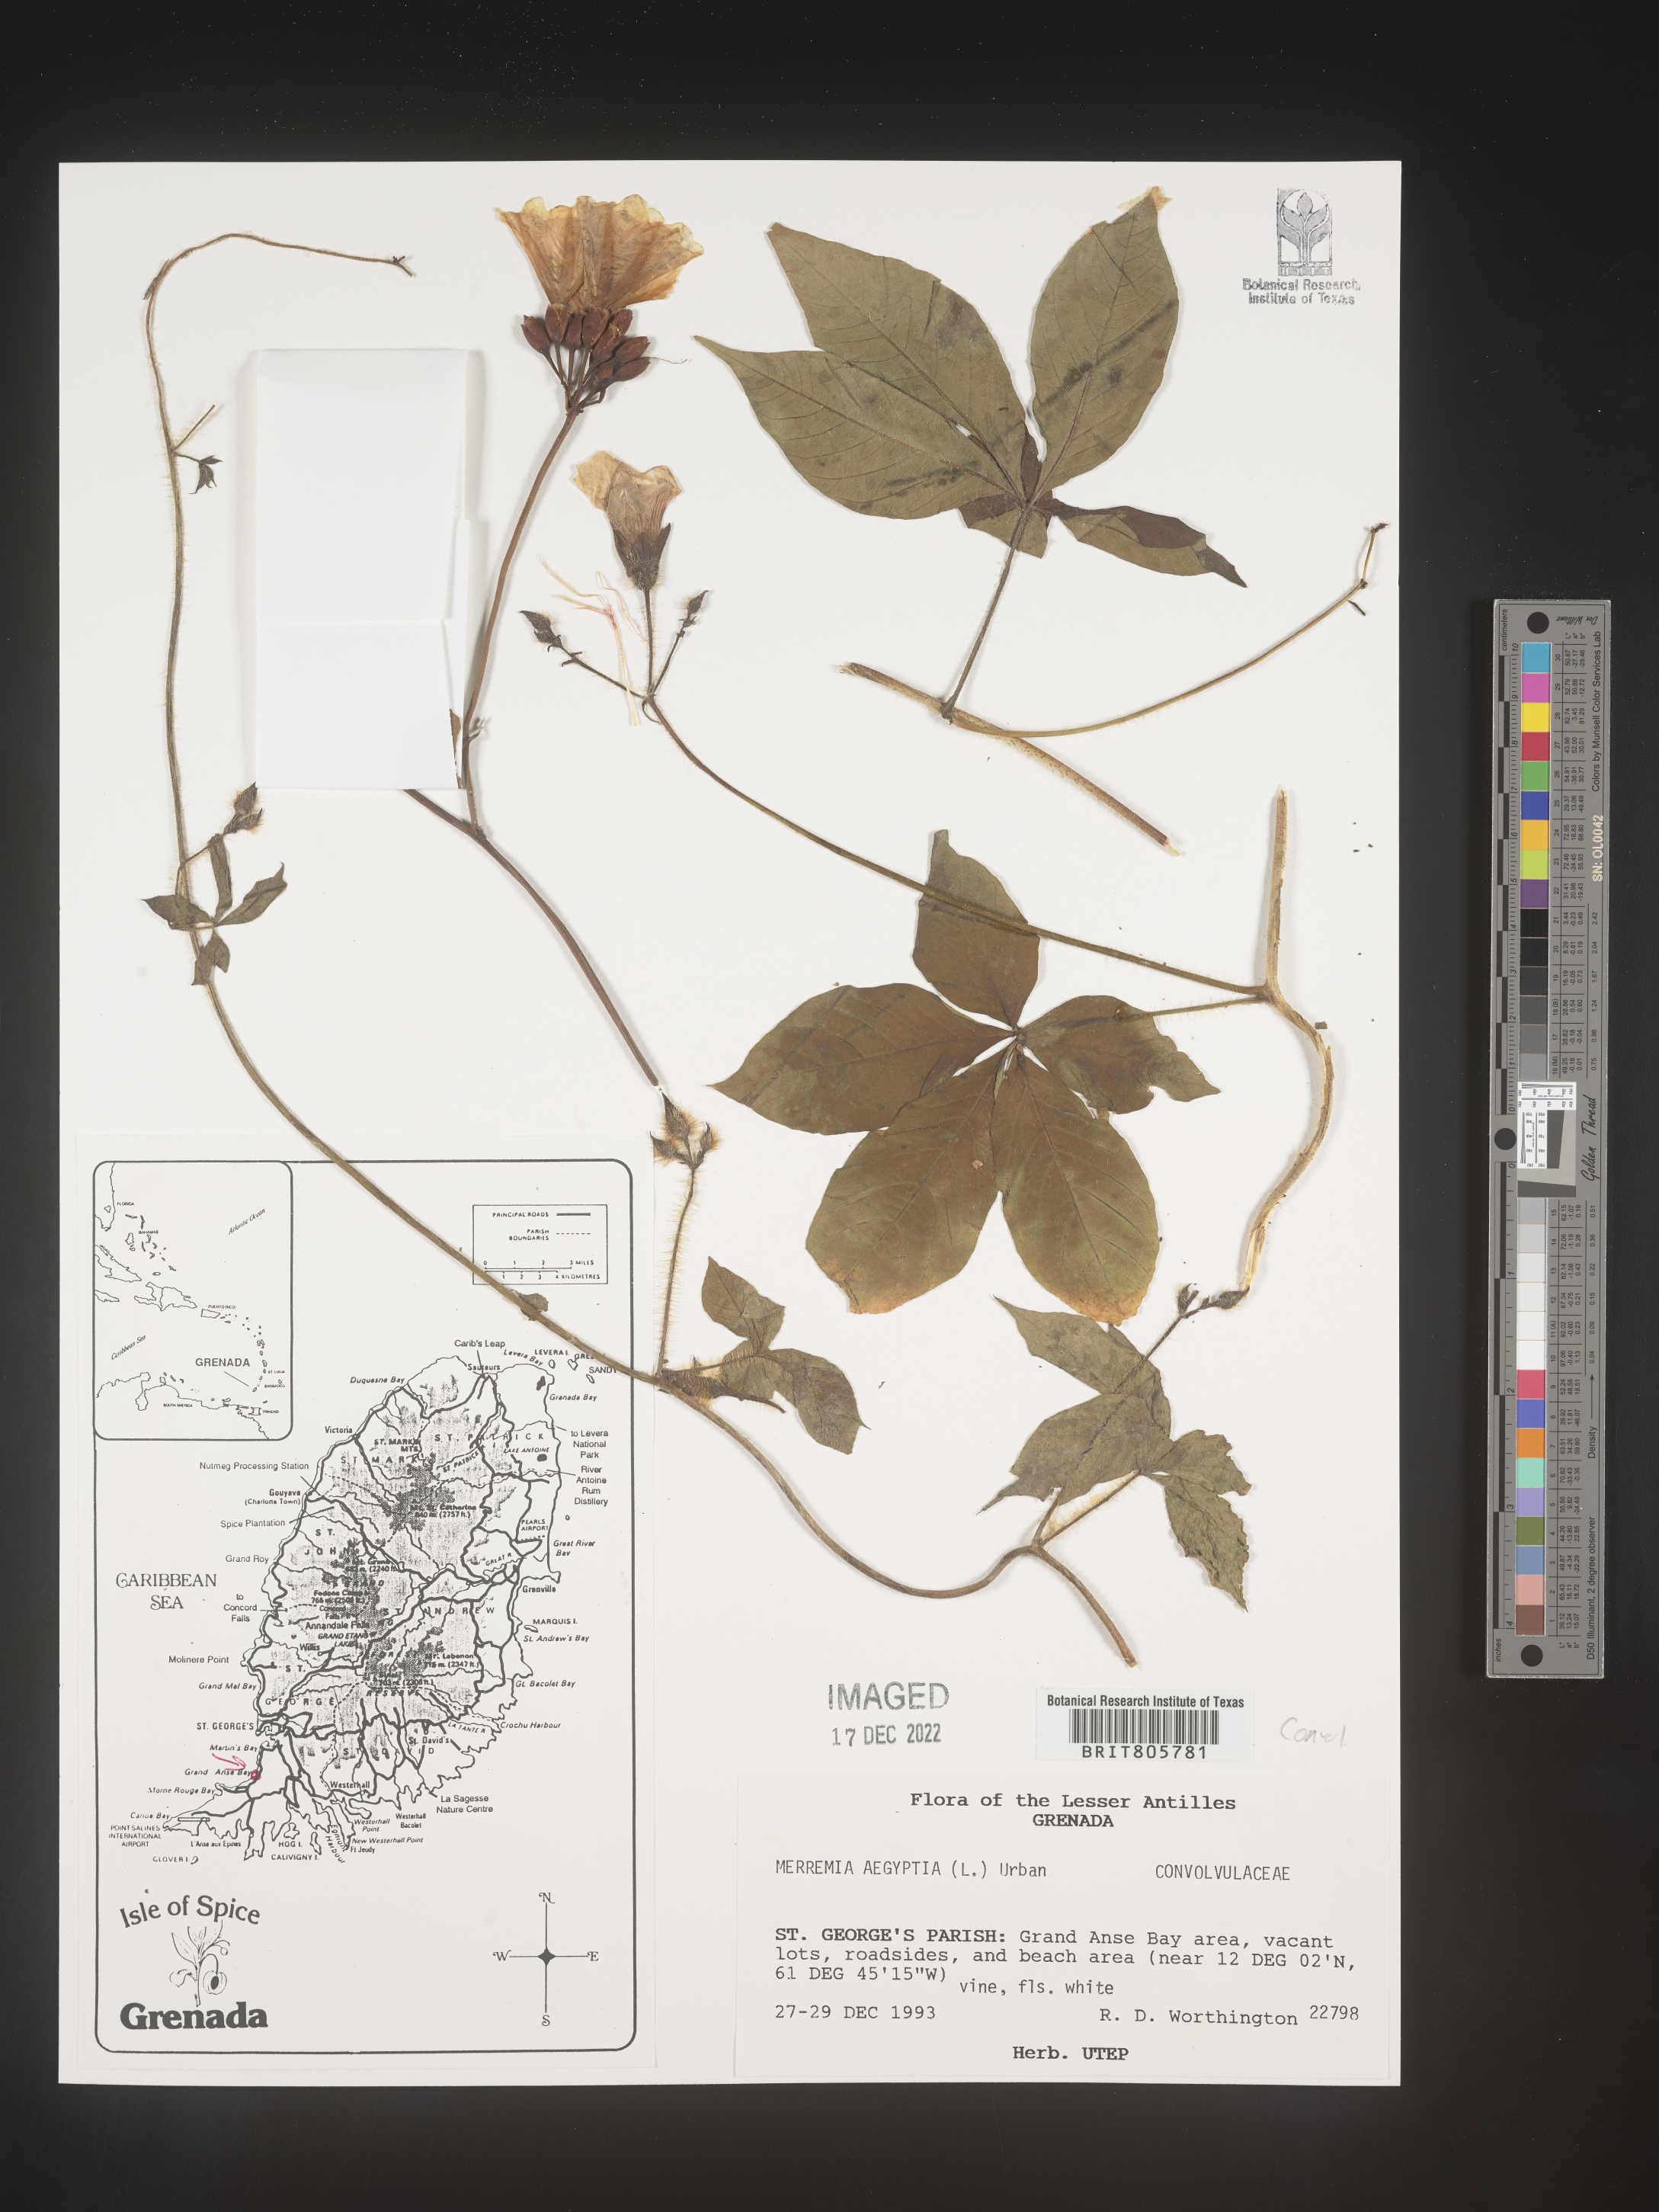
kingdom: Plantae
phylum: Tracheophyta
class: Magnoliopsida
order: Solanales
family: Convolvulaceae
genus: Merremia
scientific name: Merremia
